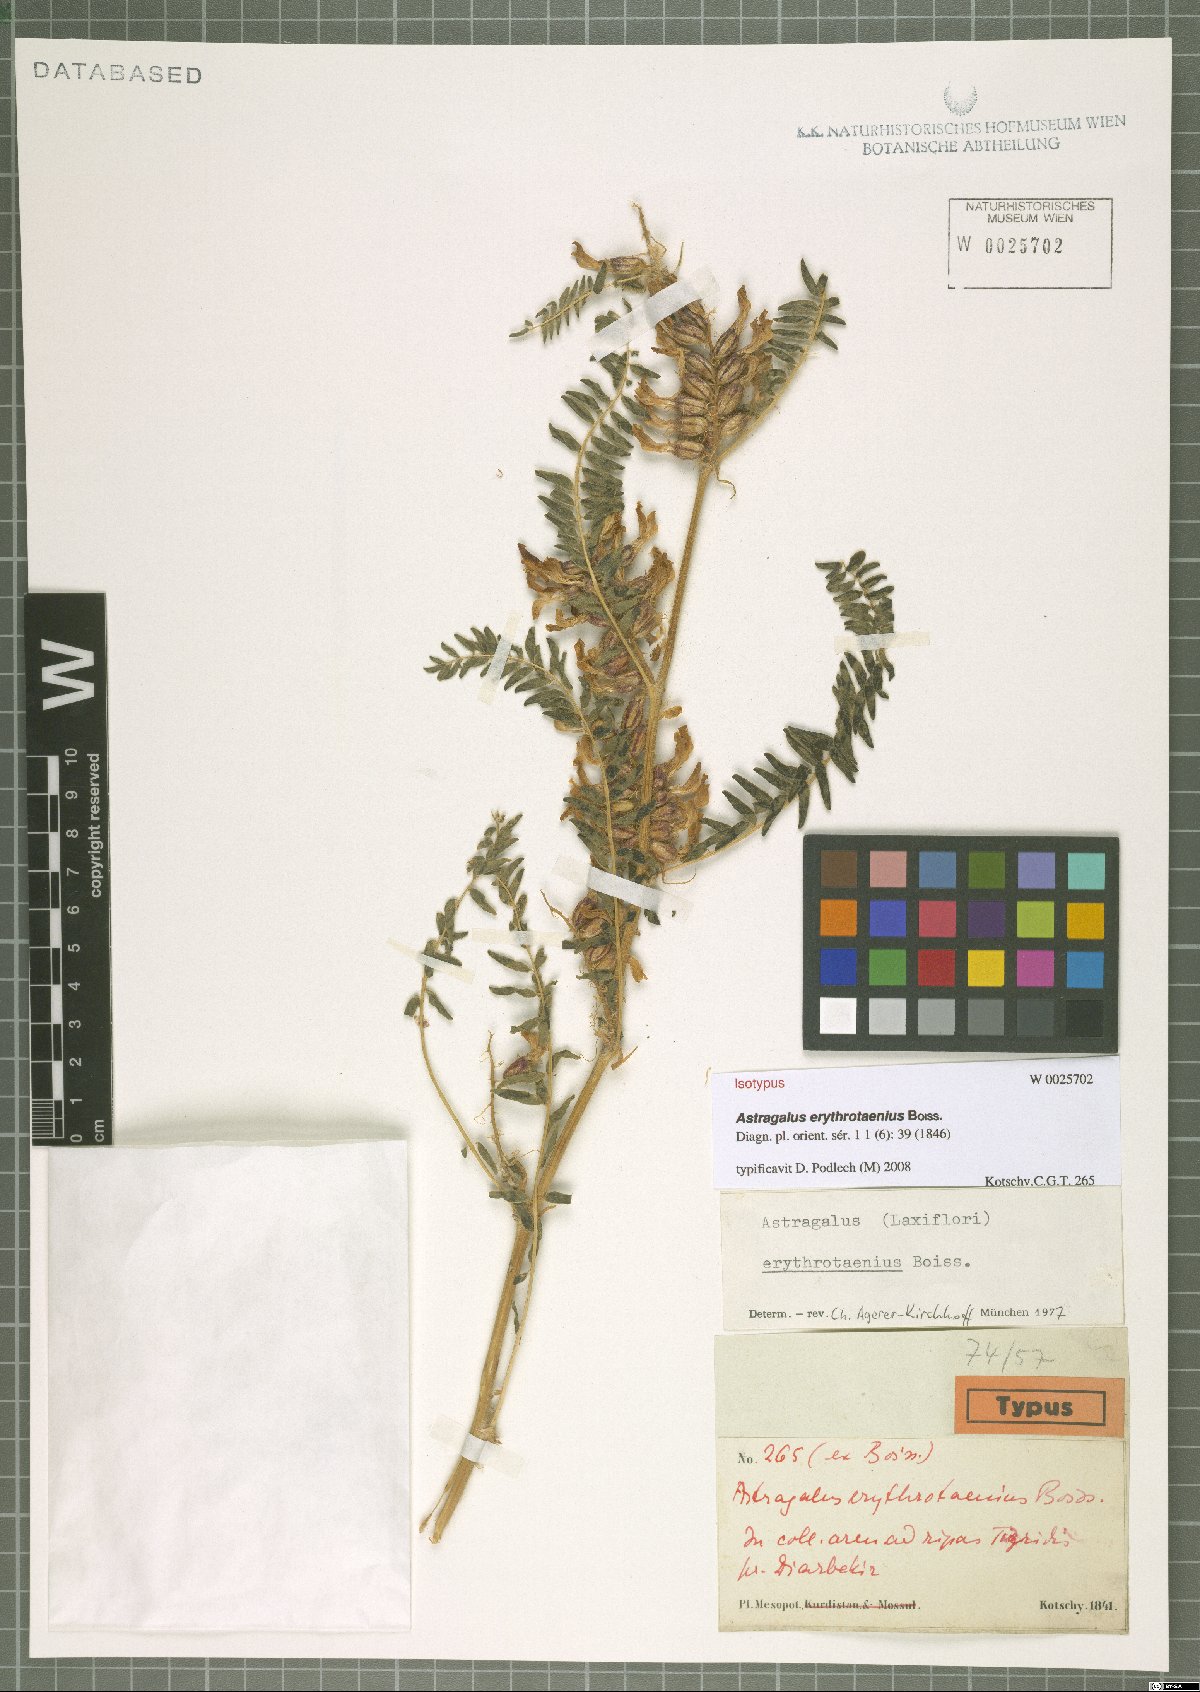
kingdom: Plantae
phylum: Tracheophyta
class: Magnoliopsida
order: Fabales
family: Fabaceae
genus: Astragalus
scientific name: Astragalus erythrotaenius
